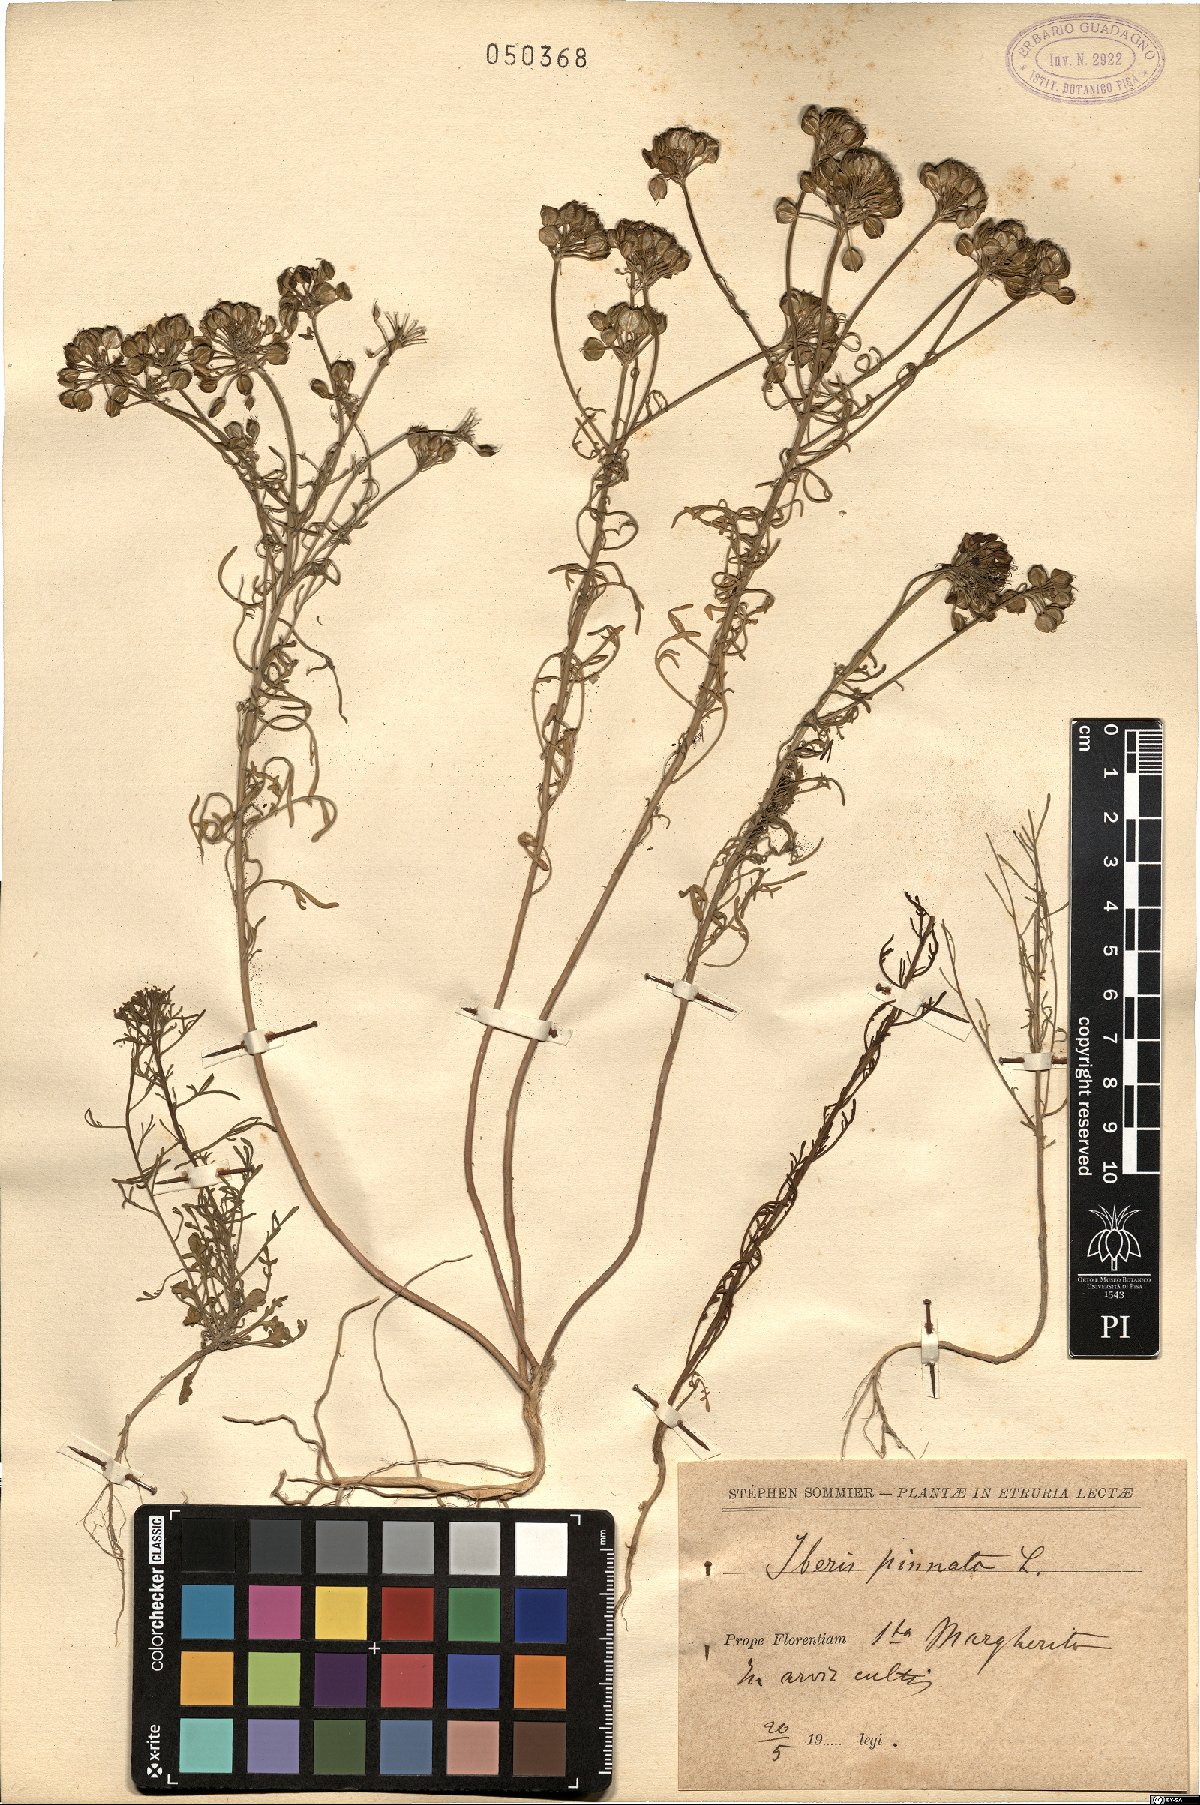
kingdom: Plantae
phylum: Tracheophyta
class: Magnoliopsida
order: Brassicales
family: Brassicaceae
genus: Iberis
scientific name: Iberis pinnata
